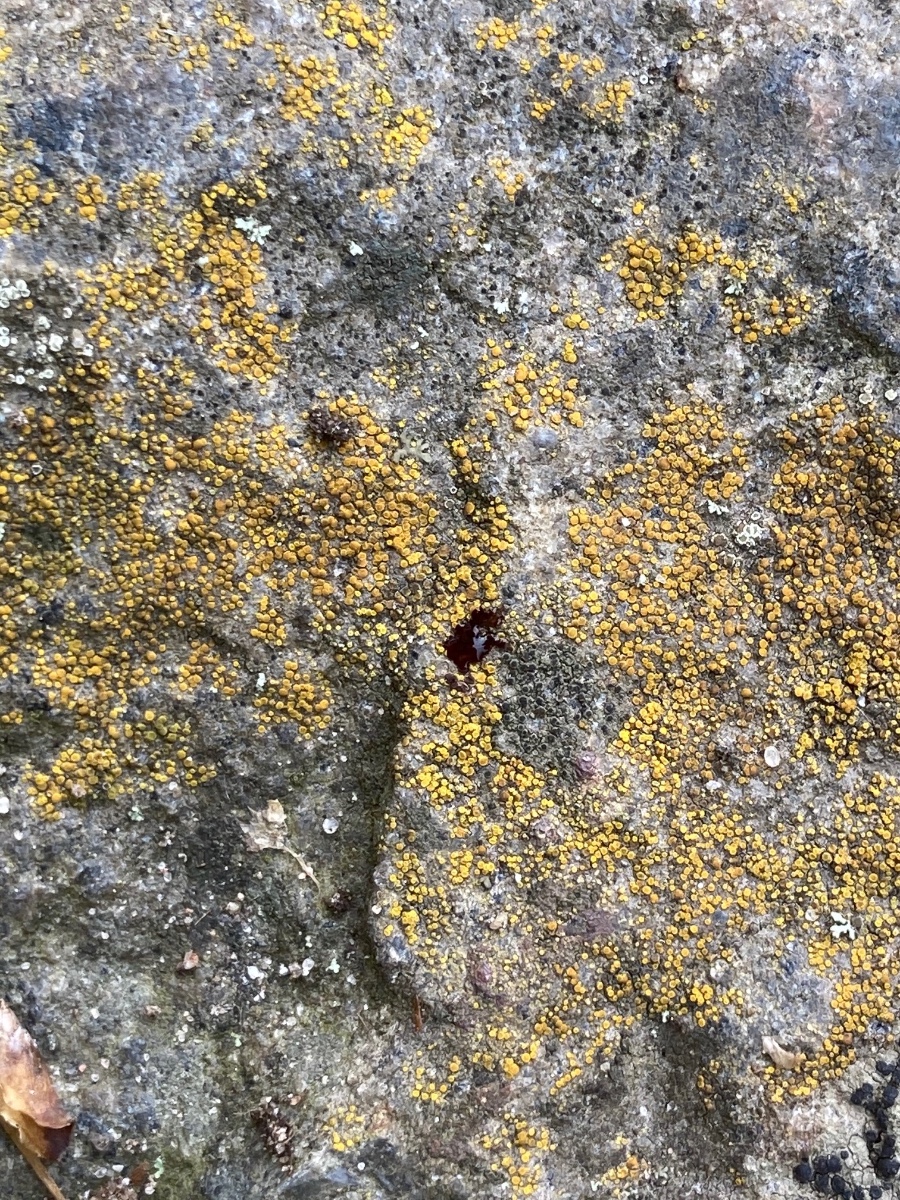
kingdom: Fungi
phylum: Ascomycota
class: Lecanoromycetes
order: Teloschistales
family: Teloschistaceae
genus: Flavoplaca
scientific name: Flavoplaca oasis
